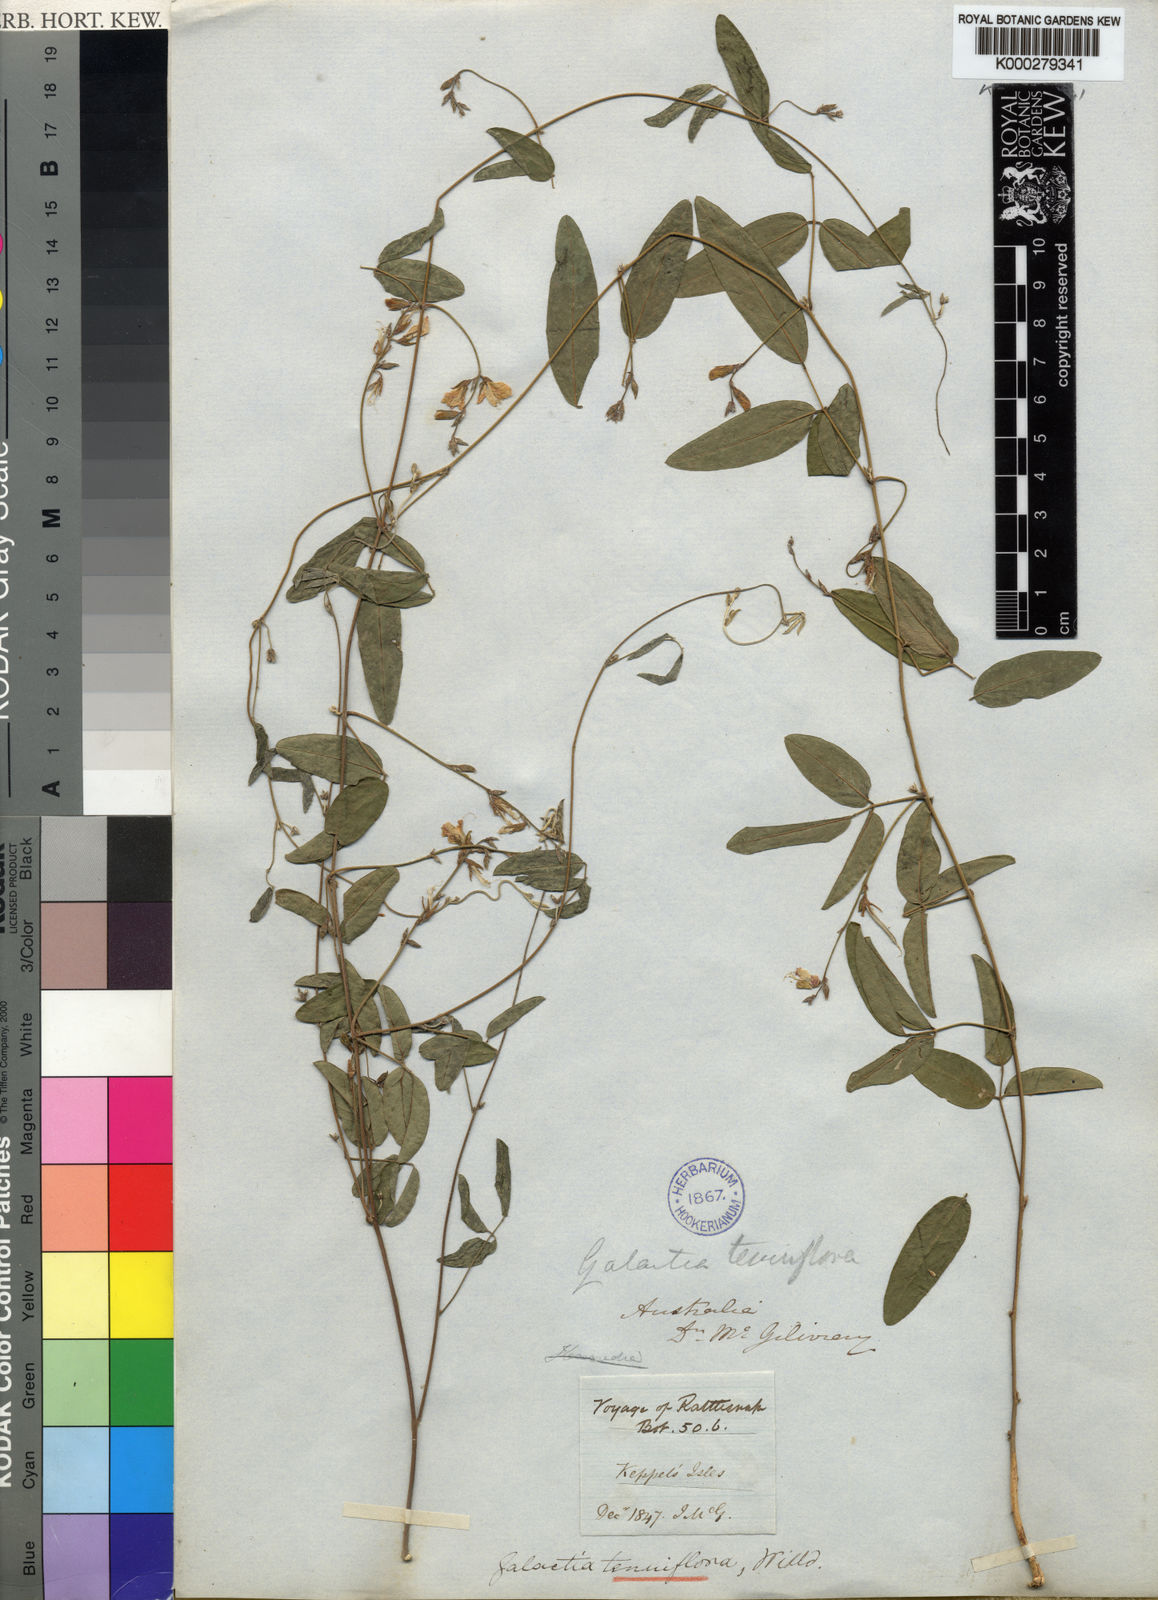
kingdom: Plantae
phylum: Tracheophyta
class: Magnoliopsida
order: Fabales
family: Fabaceae
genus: Galactia
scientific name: Galactia striata
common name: Florida hammock milkpea
